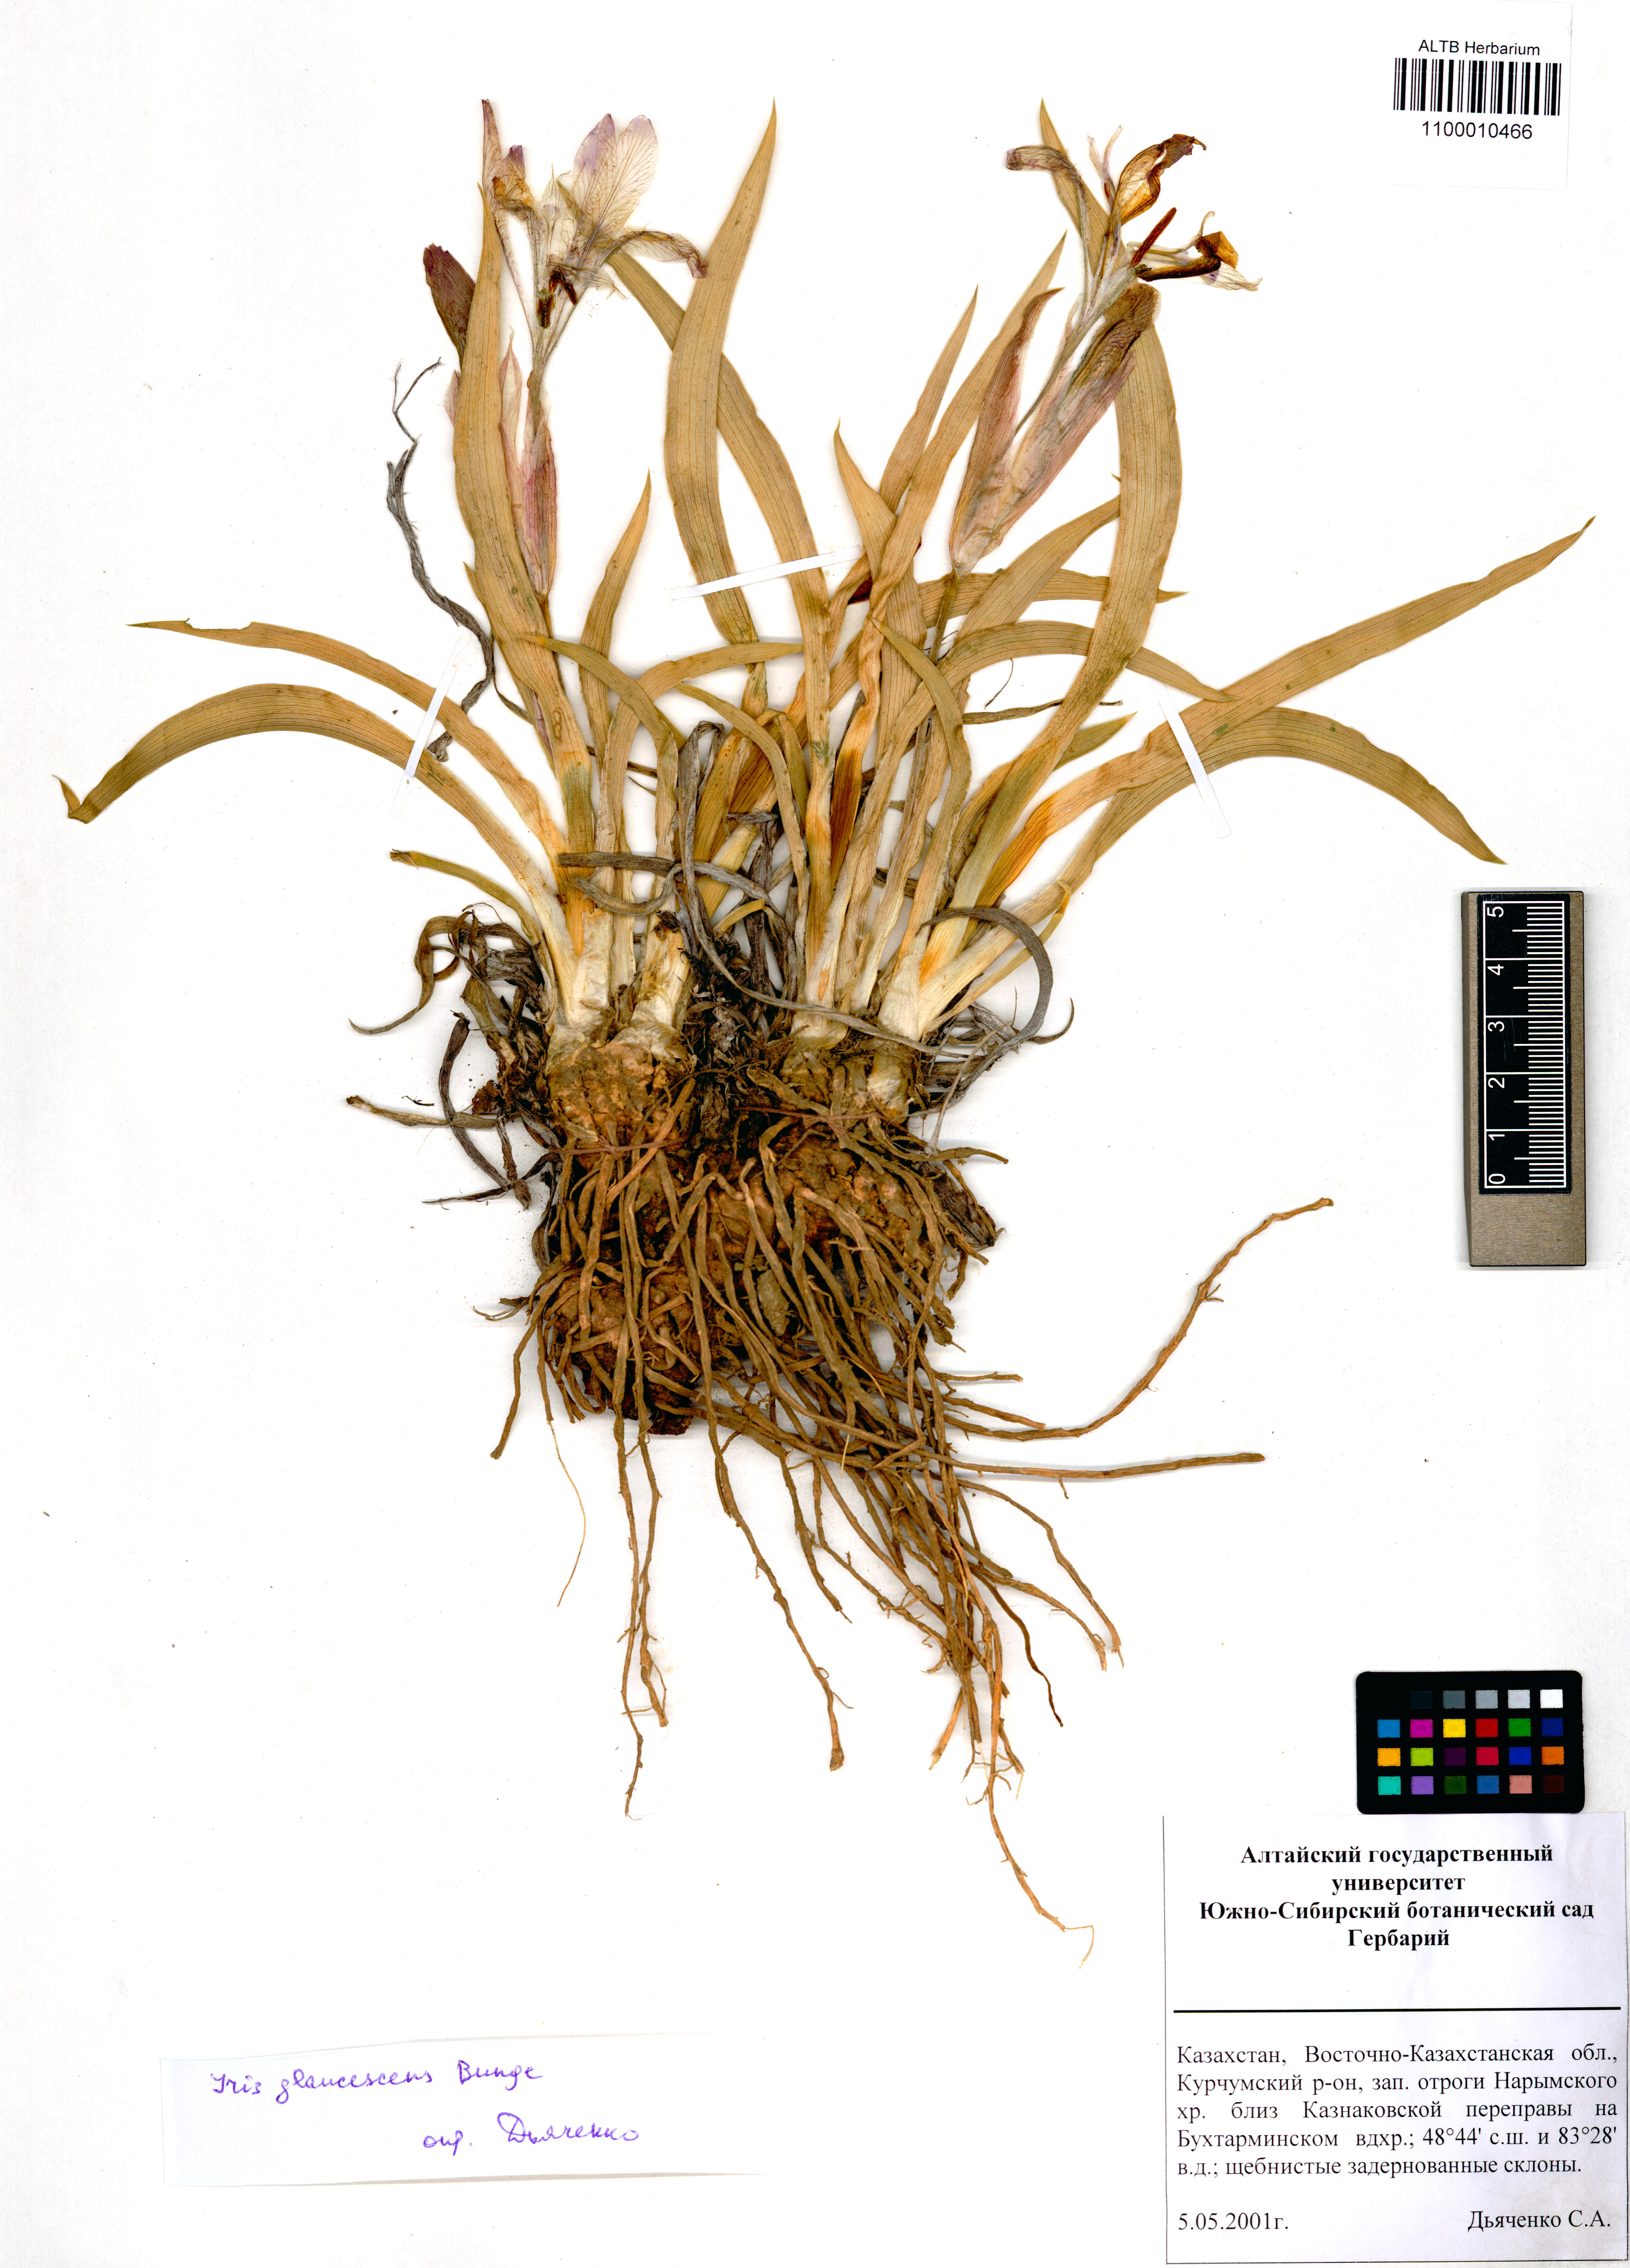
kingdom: Plantae
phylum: Tracheophyta
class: Liliopsida
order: Asparagales
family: Iridaceae
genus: Iris
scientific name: Iris glaucescens
